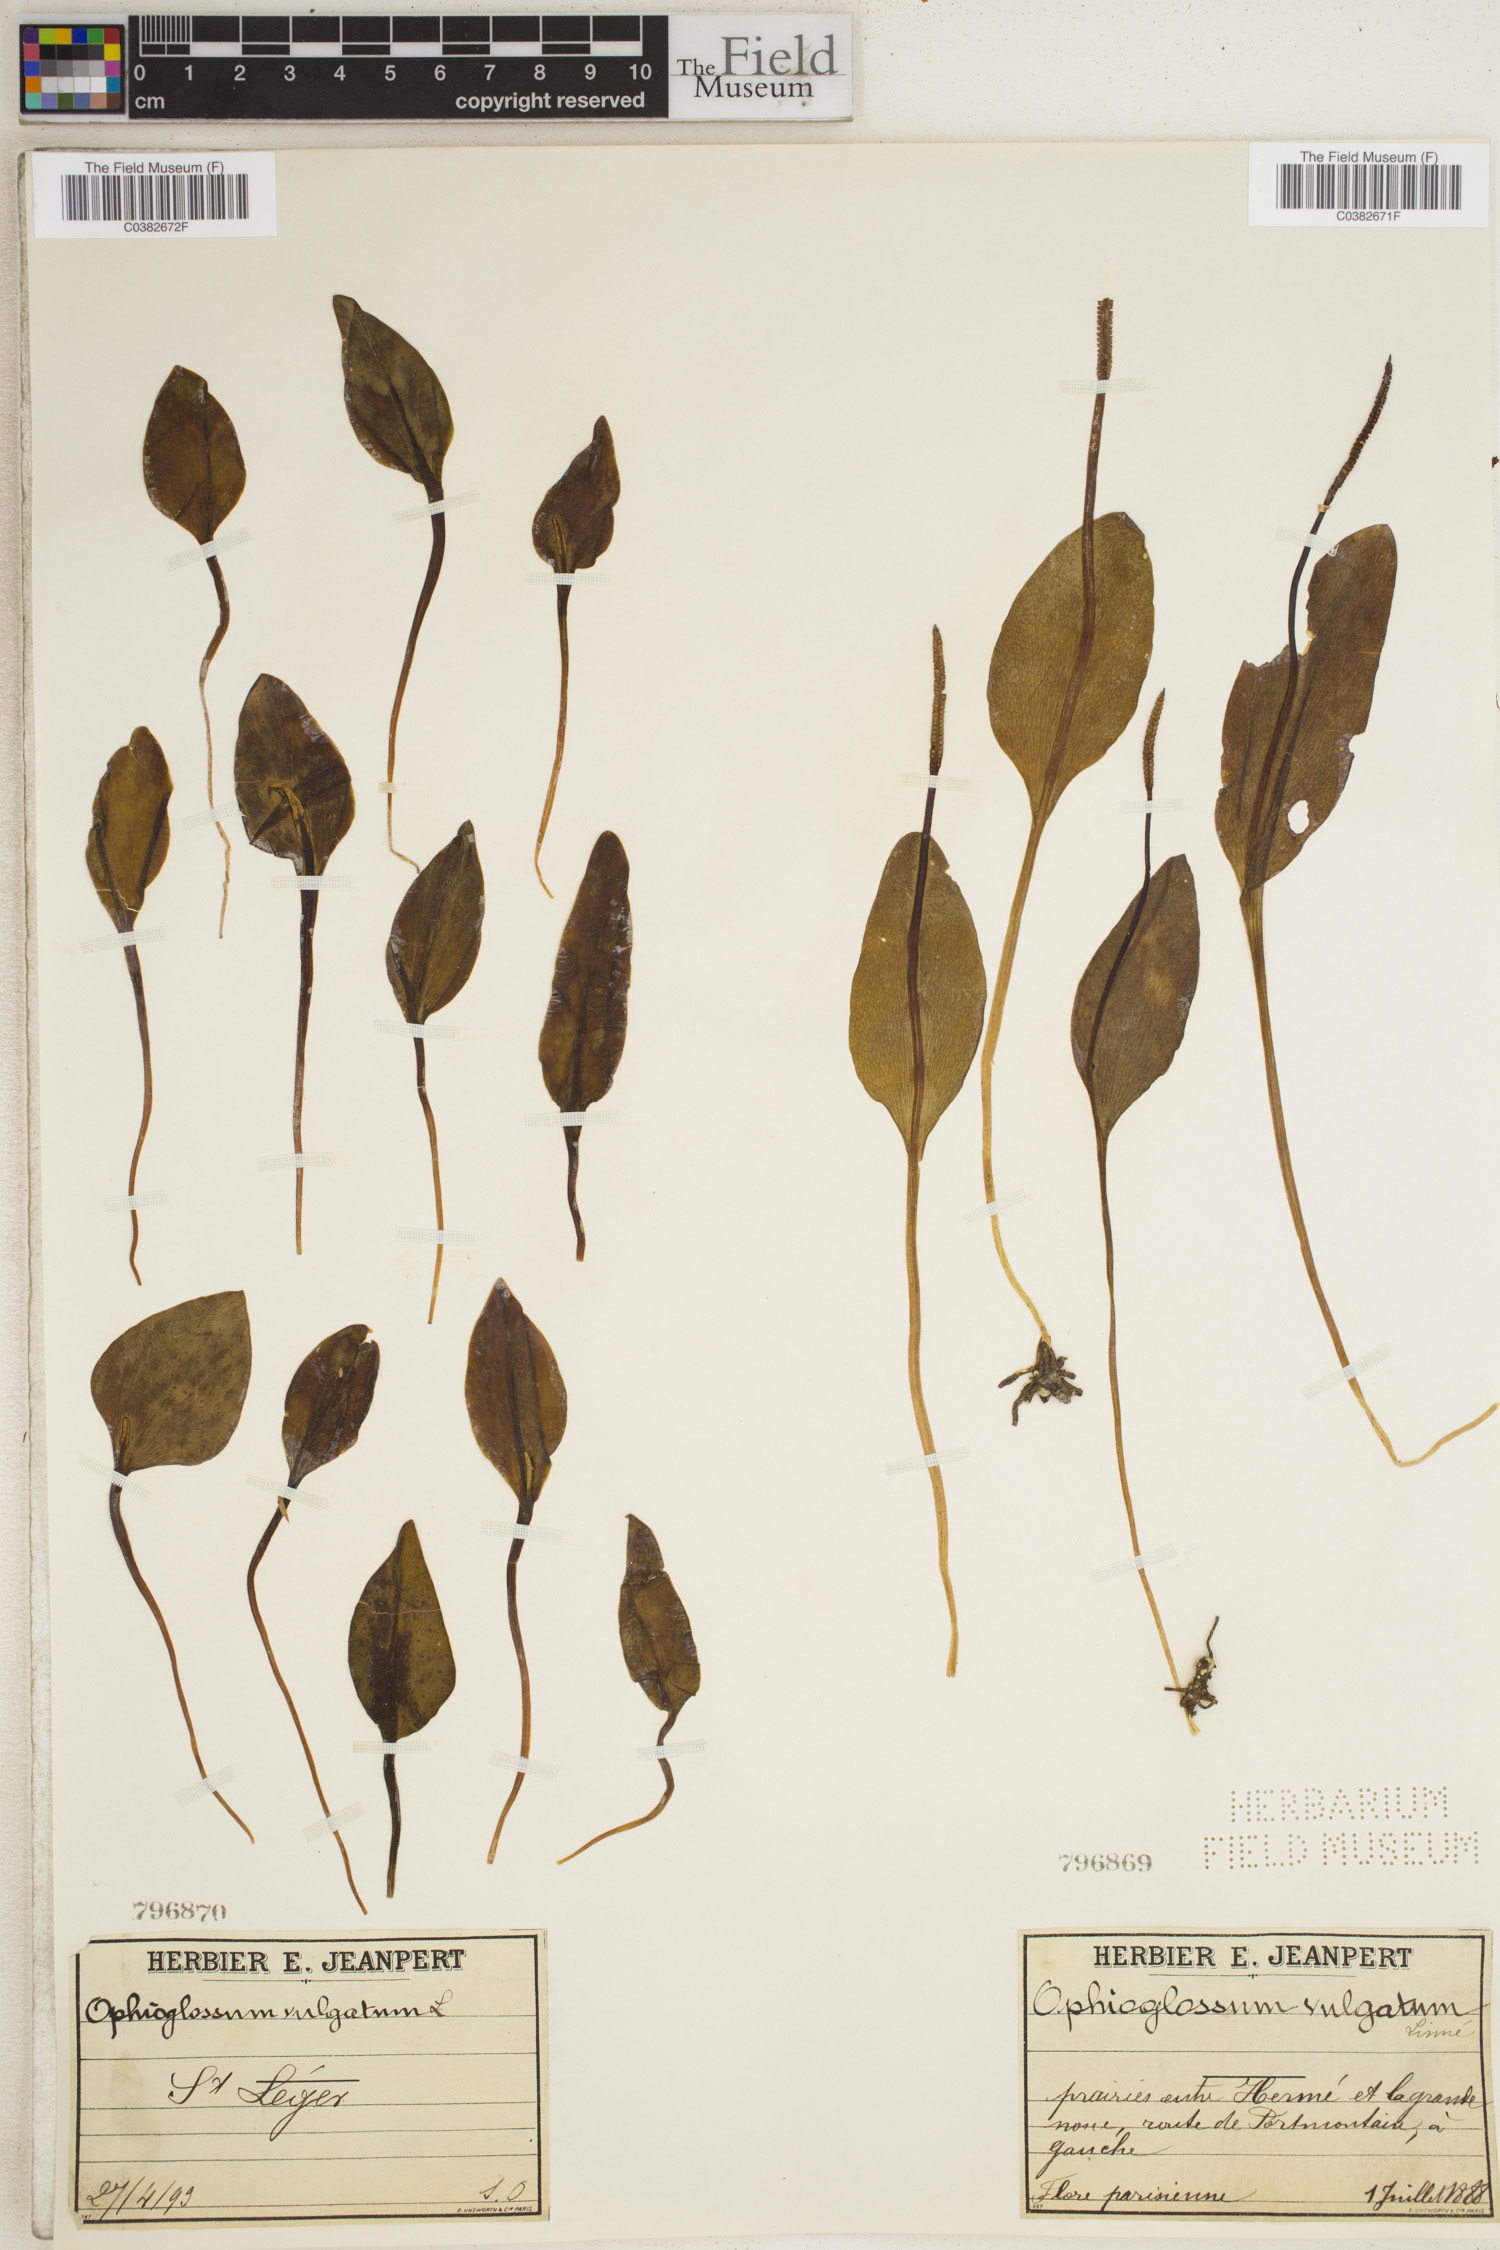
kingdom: Plantae
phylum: Tracheophyta
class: Polypodiopsida
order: Ophioglossales
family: Ophioglossaceae
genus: Ophioglossum
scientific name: Ophioglossum vulgatum
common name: Adder's-tongue
